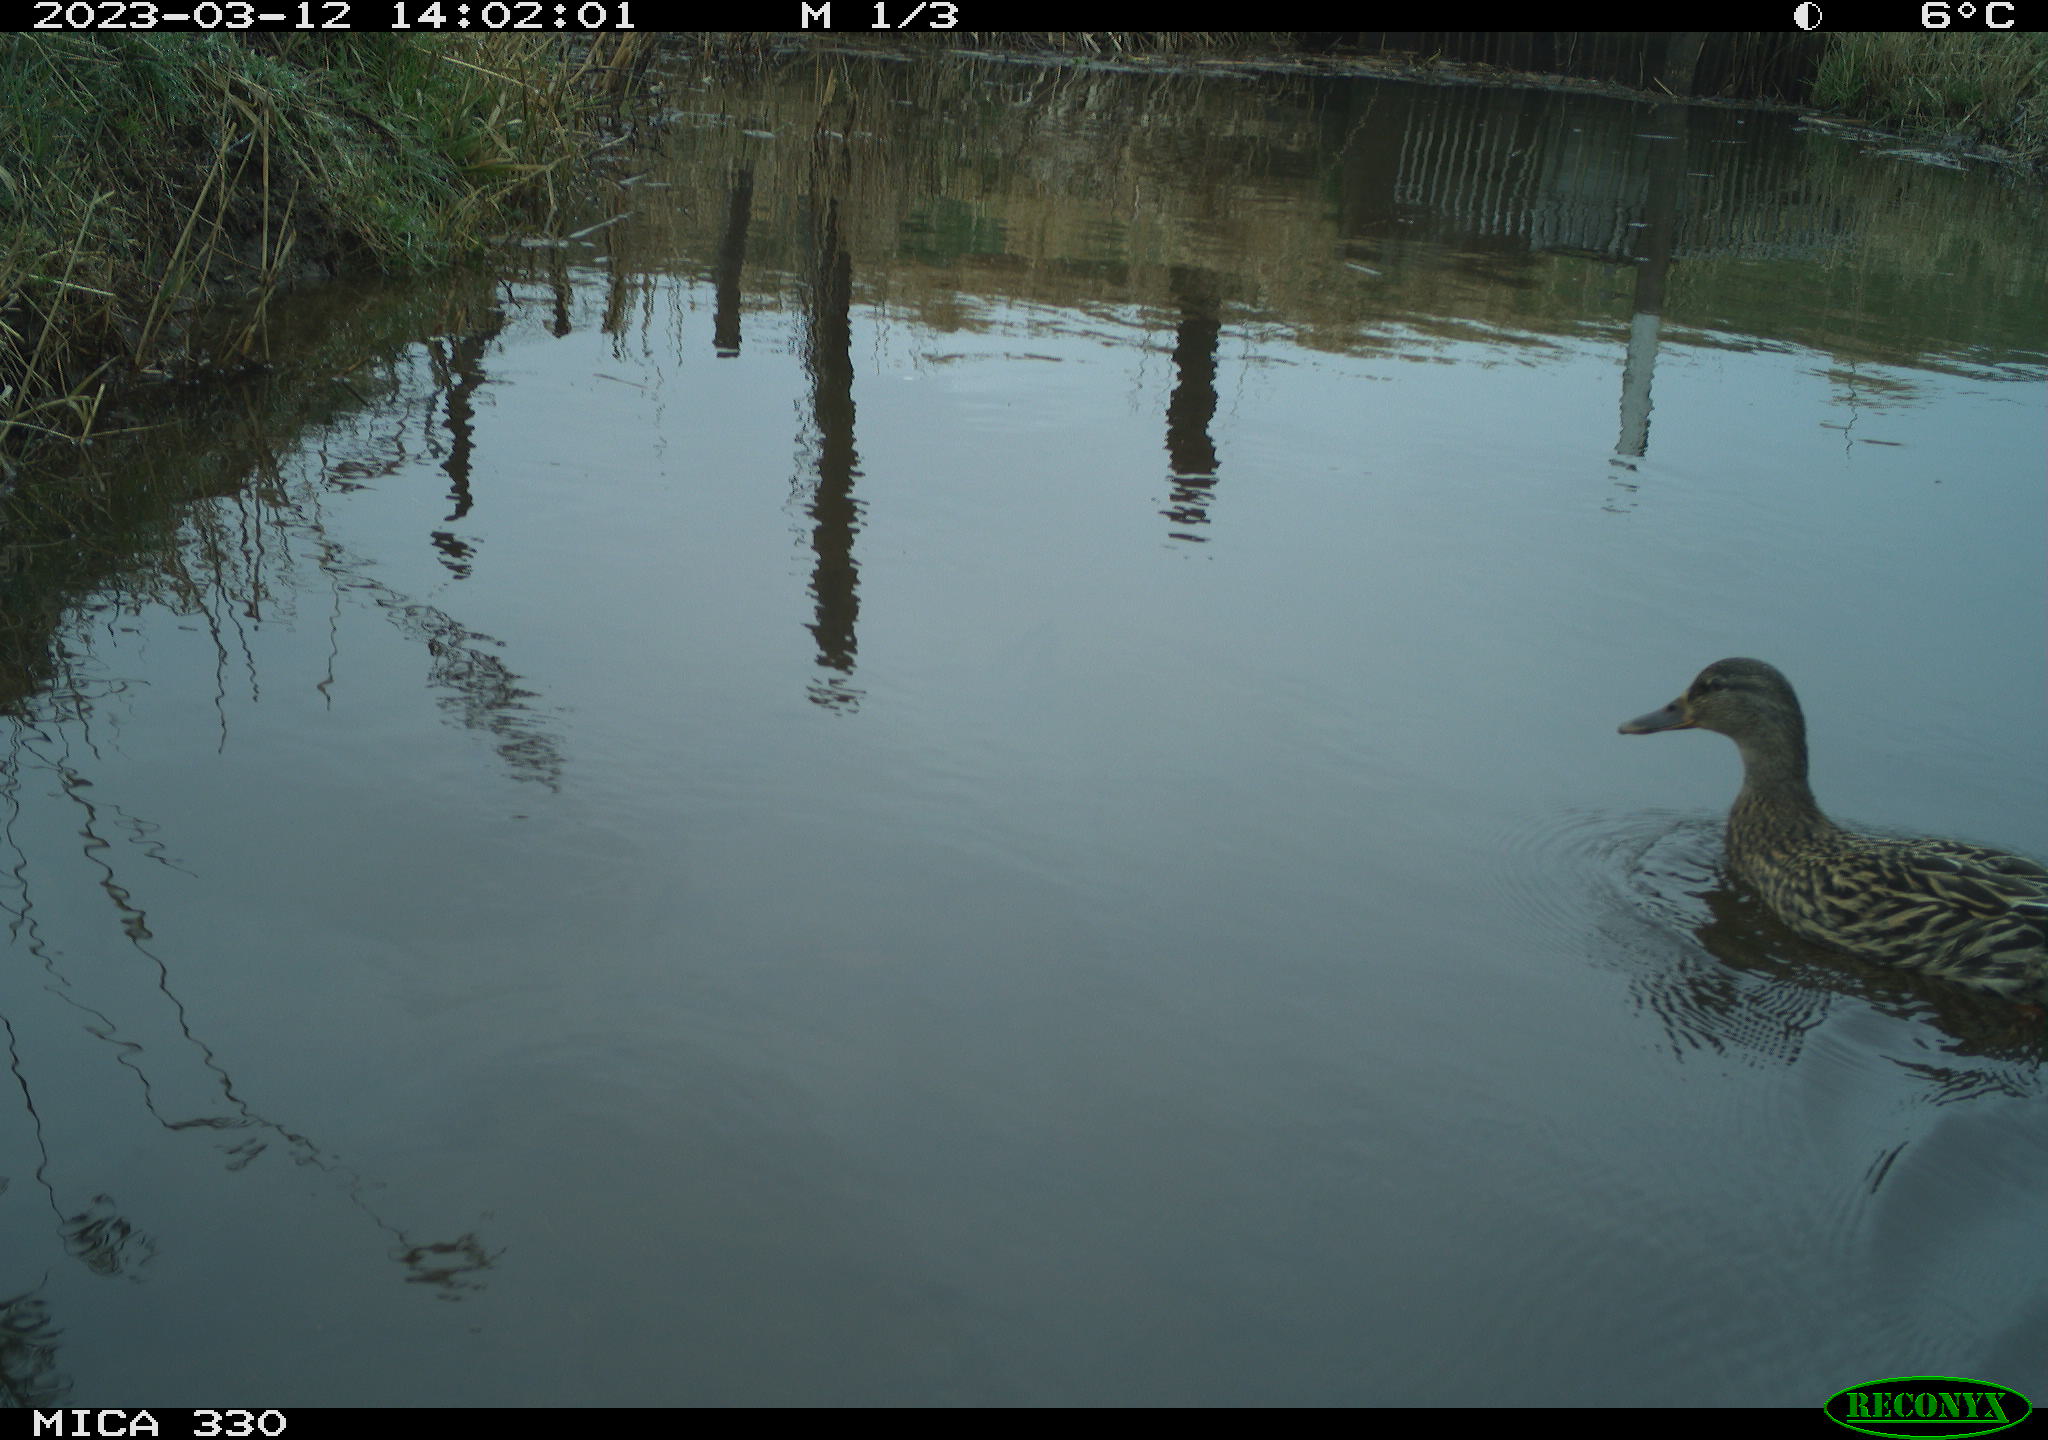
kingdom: Animalia
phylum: Chordata
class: Aves
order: Anseriformes
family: Anatidae
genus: Anas
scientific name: Anas
